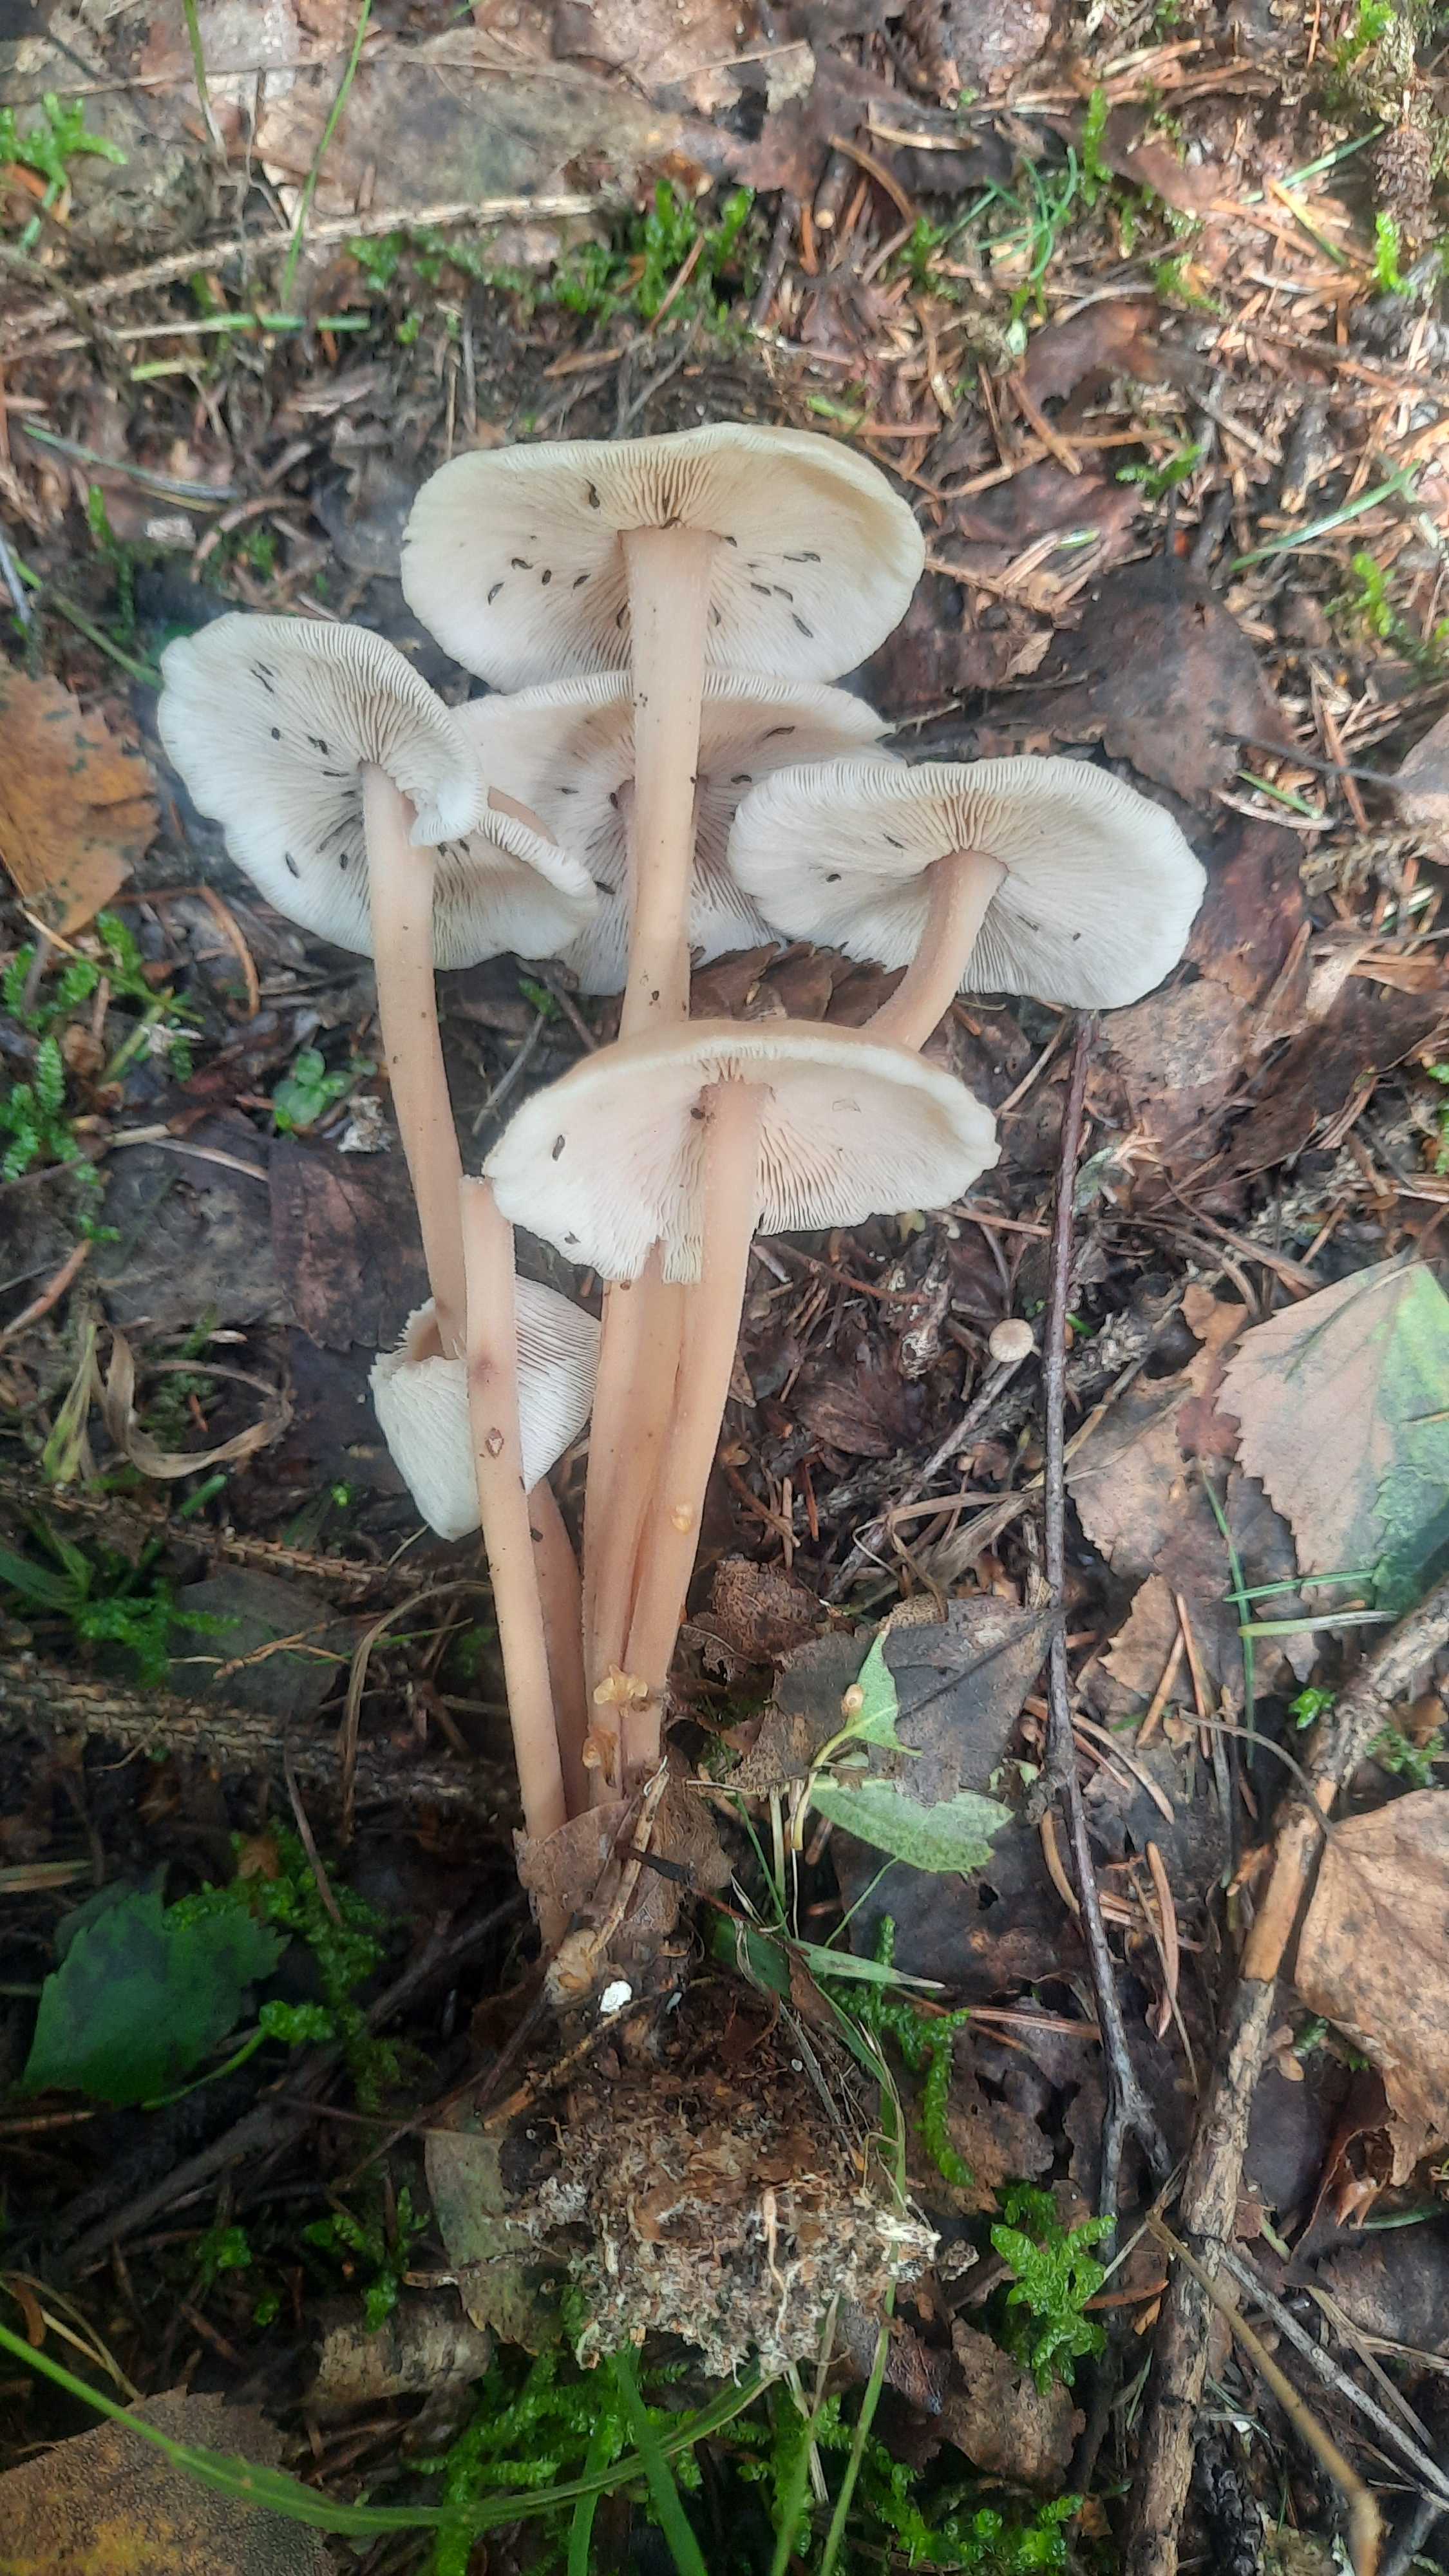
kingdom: Fungi
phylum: Basidiomycota
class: Agaricomycetes
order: Agaricales
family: Omphalotaceae
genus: Collybiopsis
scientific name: Collybiopsis confluens
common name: knippe-fladhat
